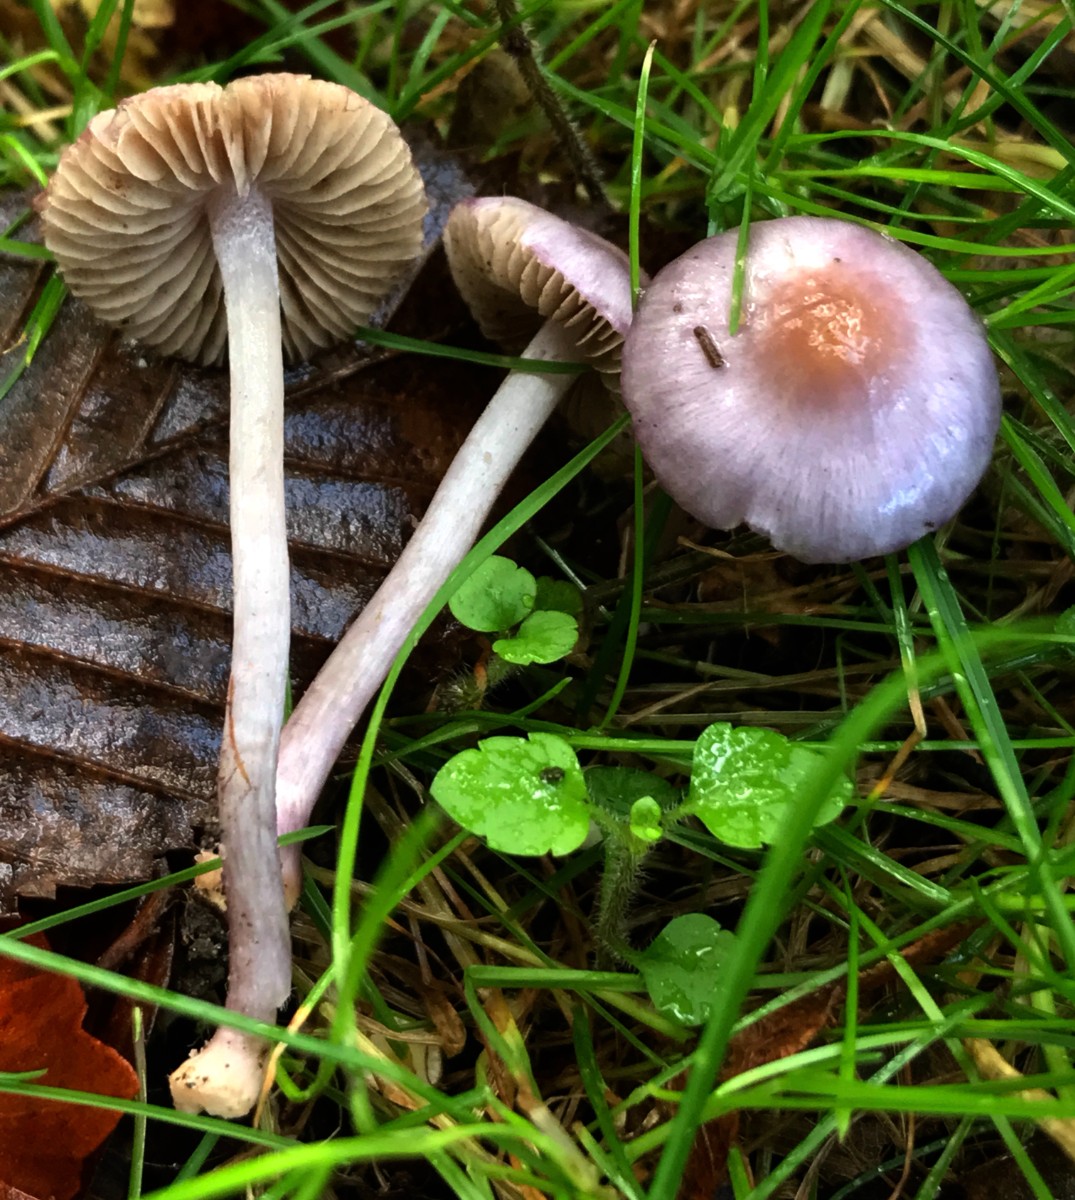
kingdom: Fungi
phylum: Basidiomycota
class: Agaricomycetes
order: Agaricales
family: Inocybaceae
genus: Inocybe
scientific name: Inocybe ionolepis
